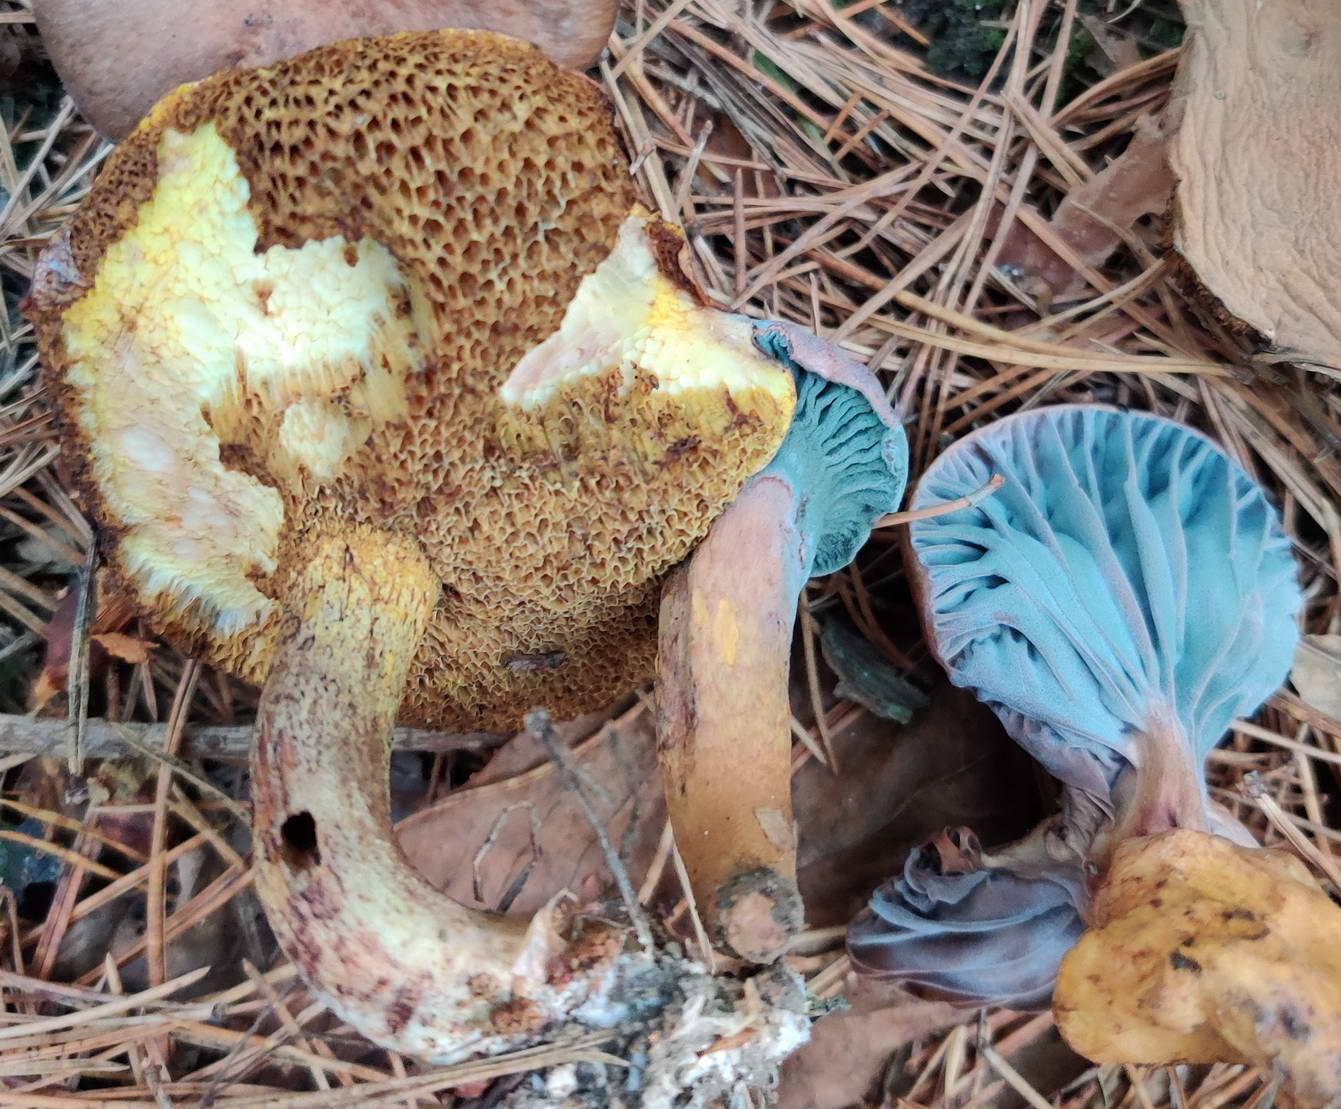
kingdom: Fungi
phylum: Basidiomycota
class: Agaricomycetes
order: Boletales
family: Gomphidiaceae
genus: Chroogomphus
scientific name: Chroogomphus rutilus
